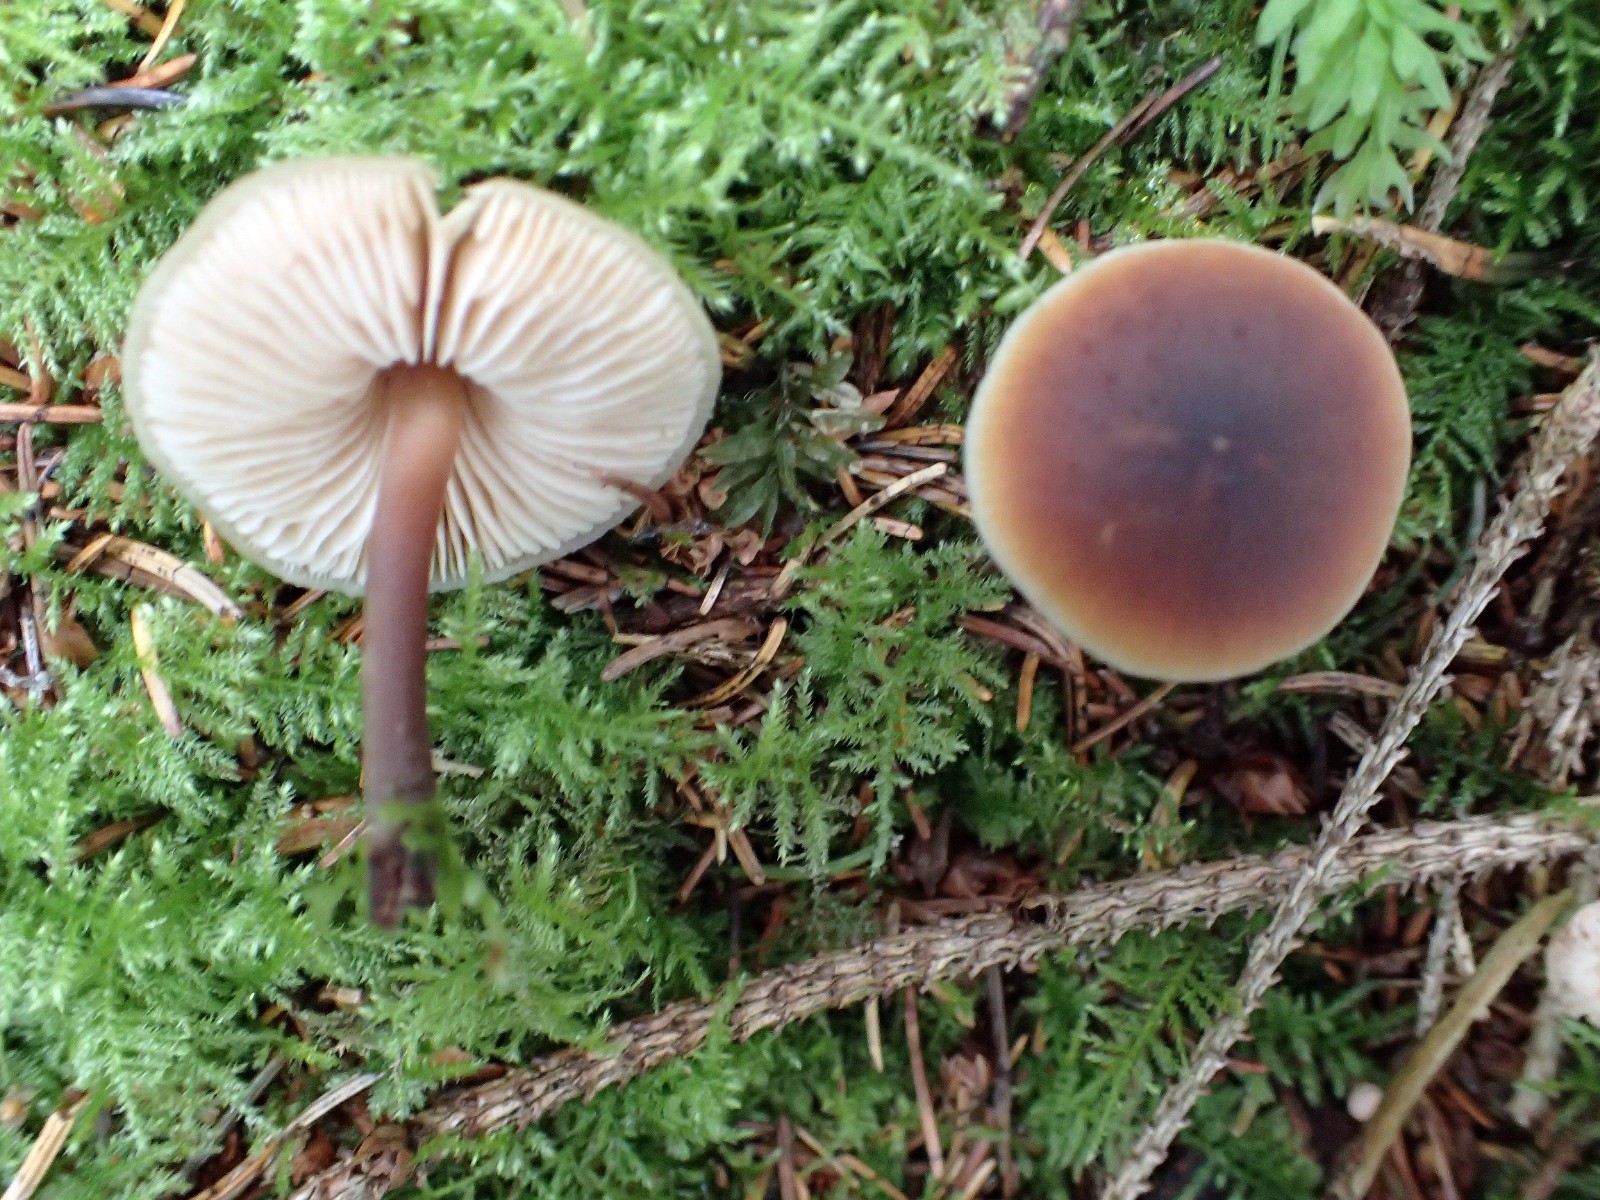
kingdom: Fungi
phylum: Basidiomycota
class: Agaricomycetes
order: Agaricales
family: Macrocystidiaceae
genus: Macrocystidia
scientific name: Macrocystidia cucumis
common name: agurkehat
